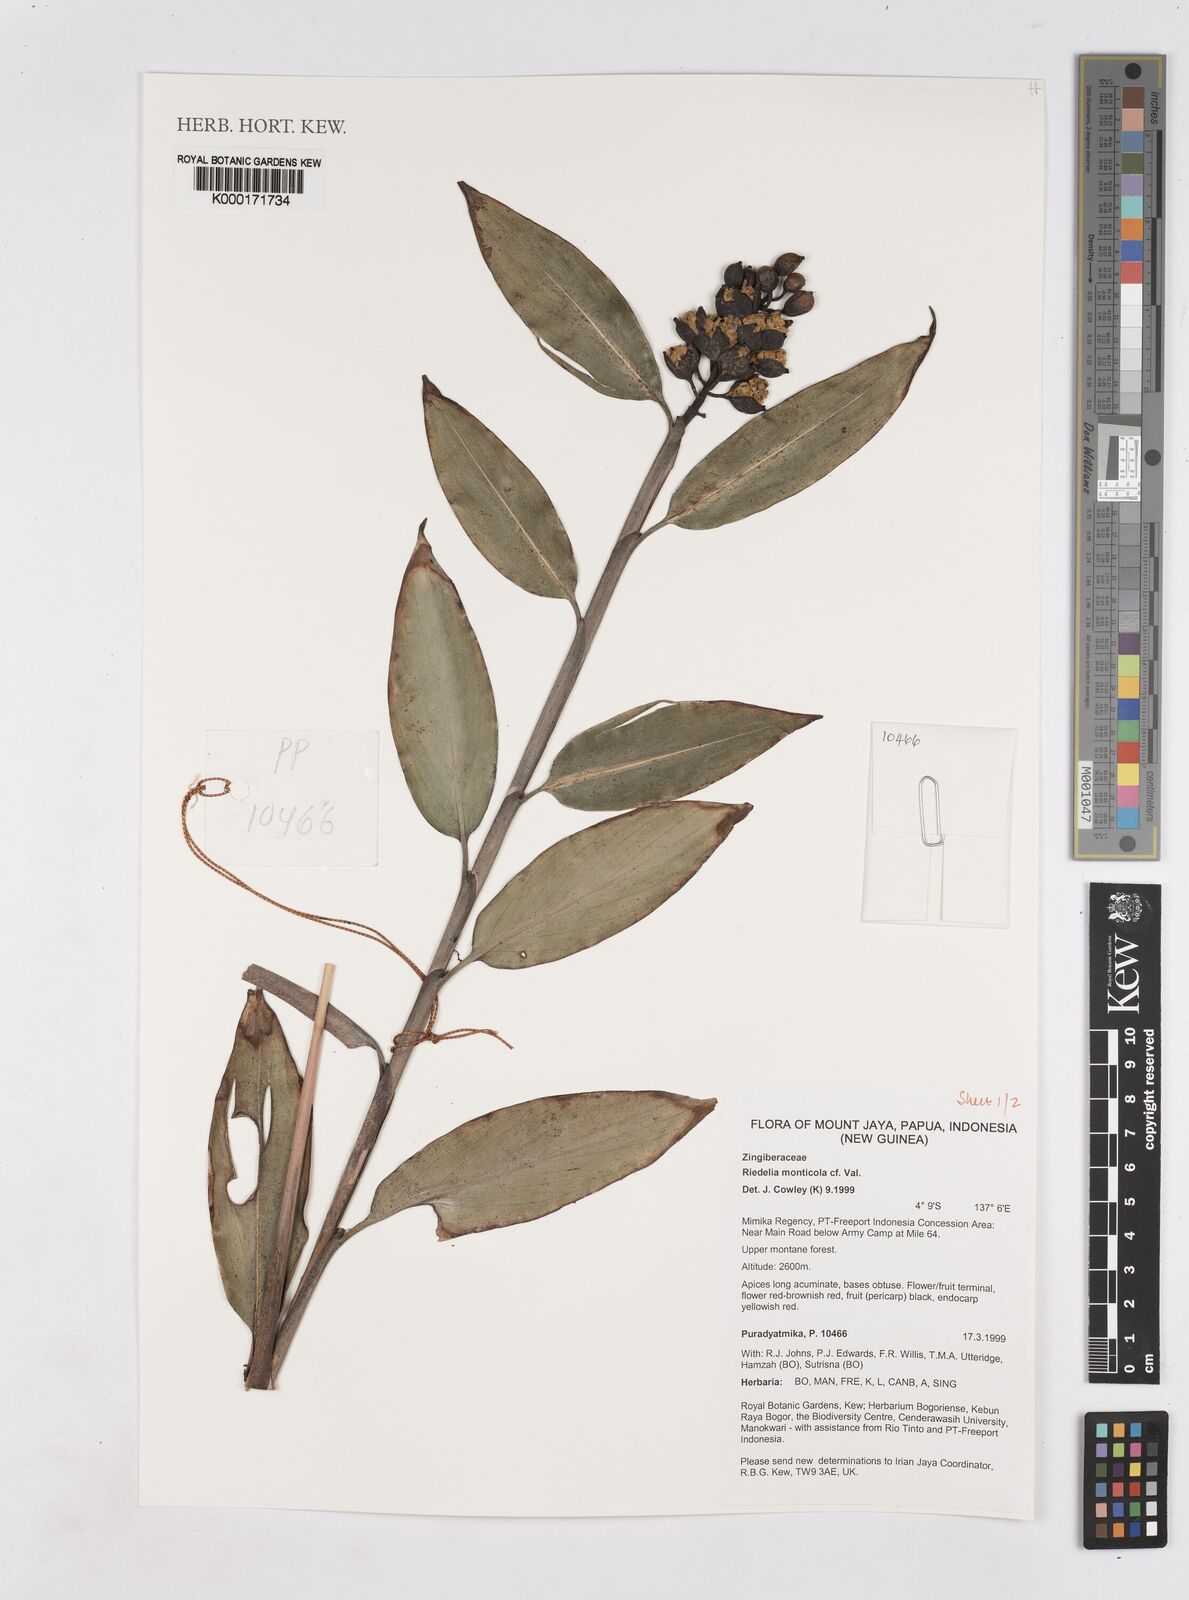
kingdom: Plantae
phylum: Tracheophyta
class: Liliopsida
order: Zingiberales
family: Zingiberaceae
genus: Riedelia
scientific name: Riedelia monticola
